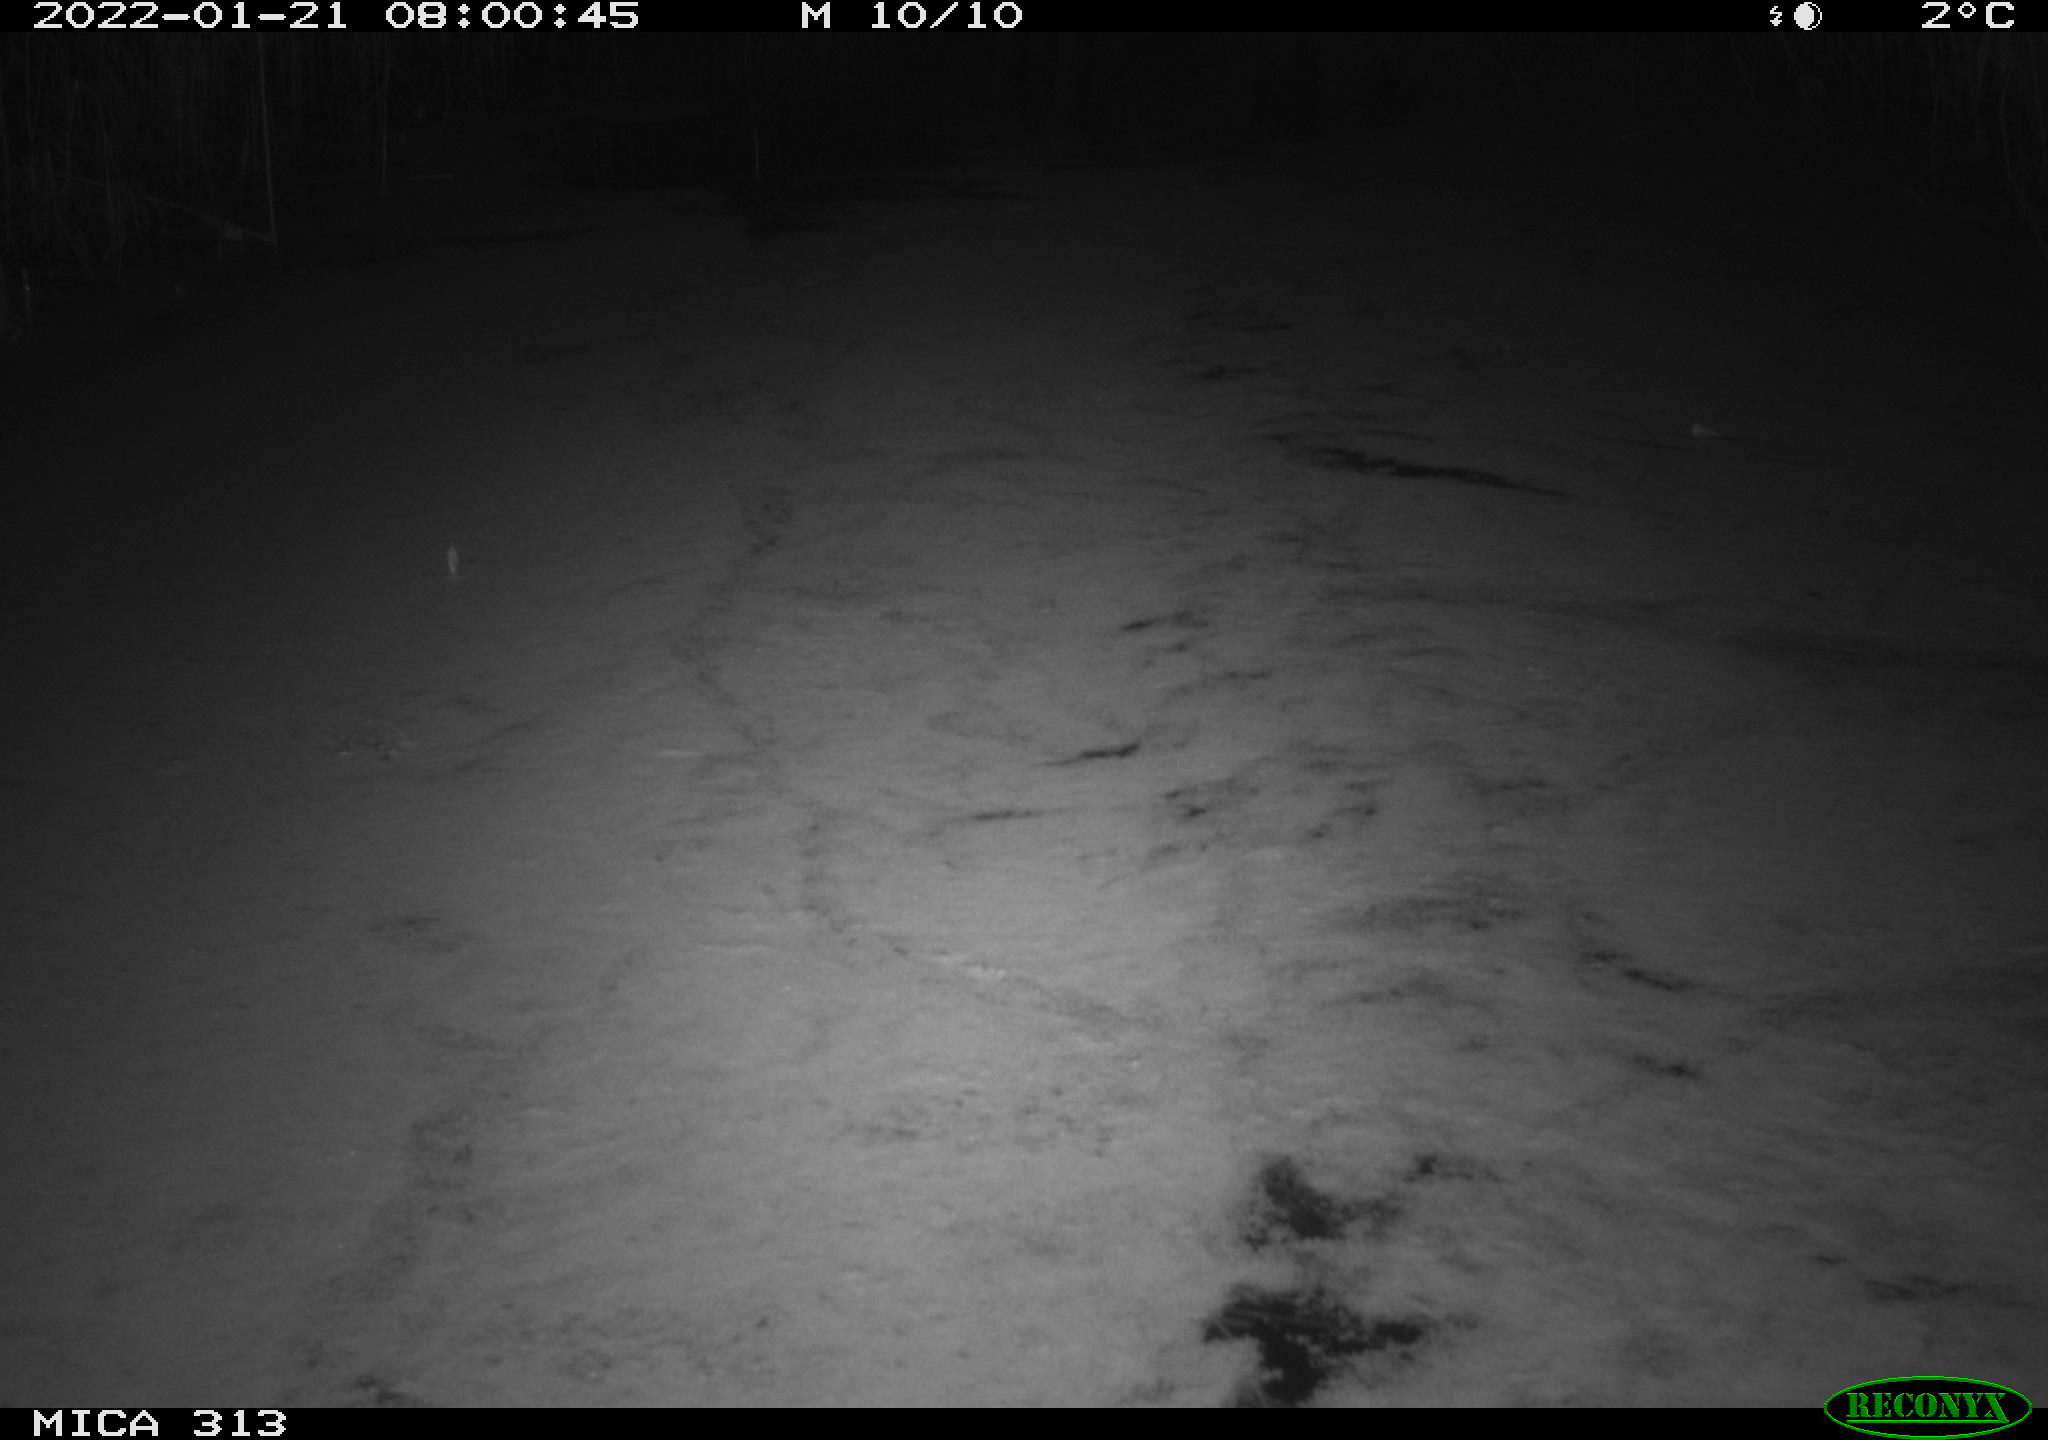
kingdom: Animalia
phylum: Chordata
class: Aves
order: Gruiformes
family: Rallidae
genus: Gallinula
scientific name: Gallinula chloropus
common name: Common moorhen
